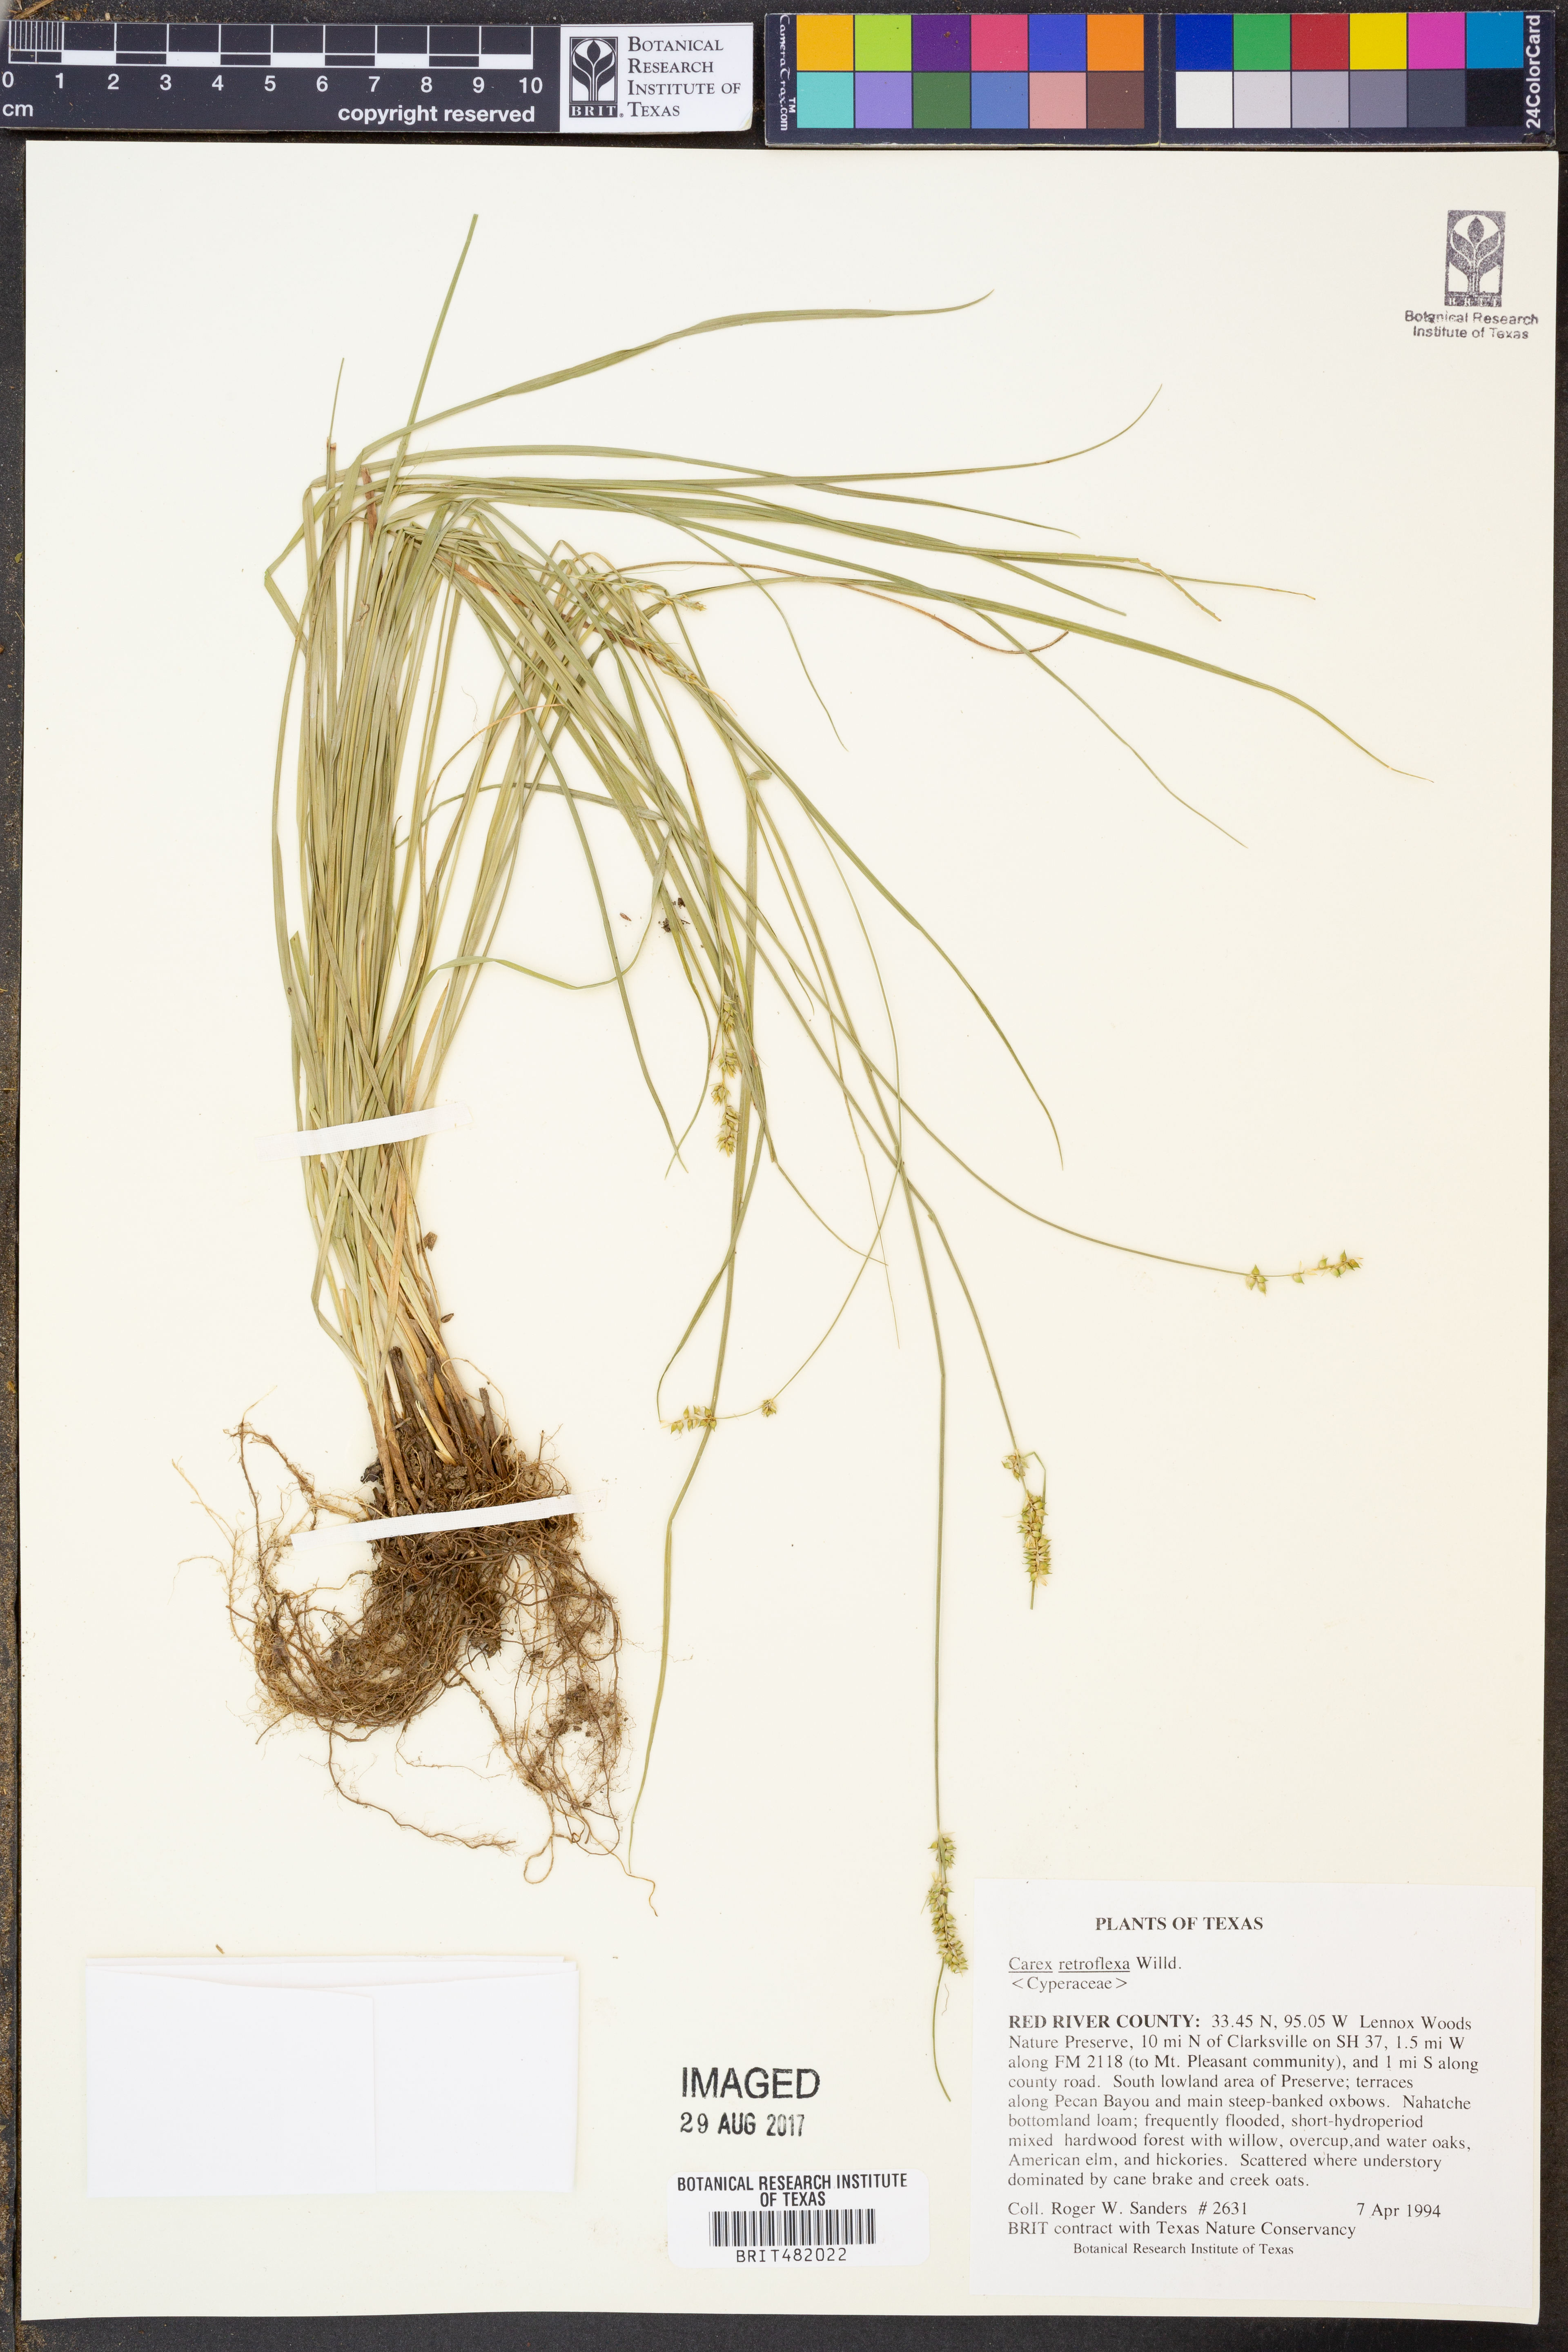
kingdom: Plantae
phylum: Tracheophyta
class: Liliopsida
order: Poales
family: Cyperaceae
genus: Carex
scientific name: Carex retroflexa
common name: Reflexed sedge
